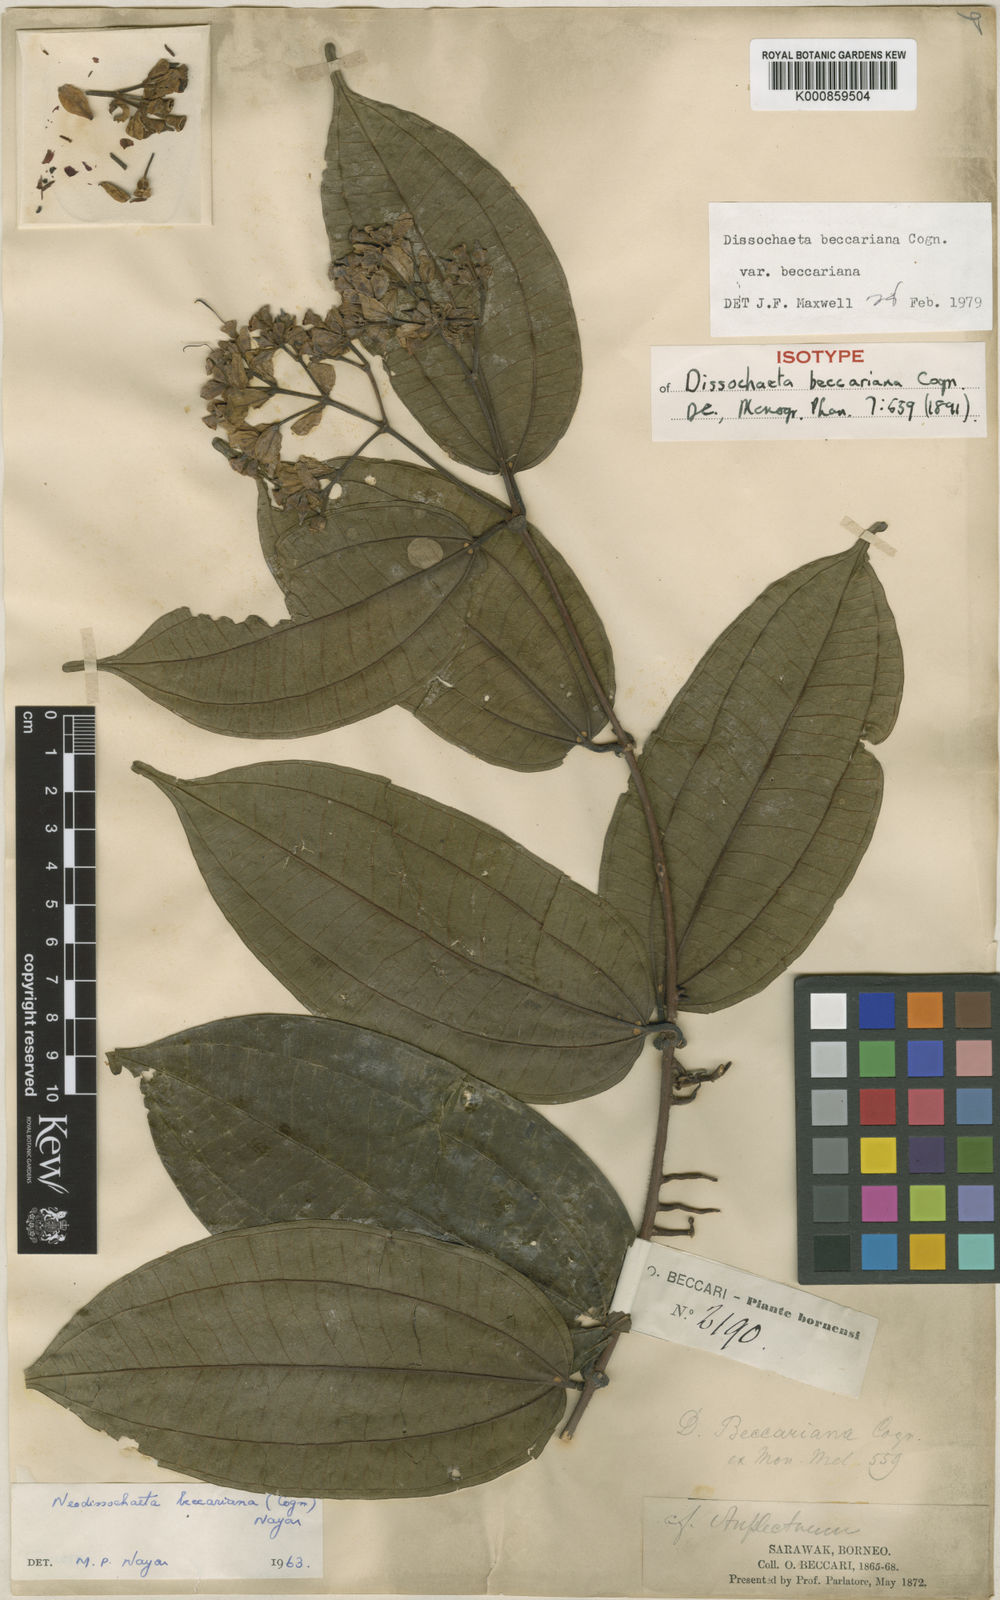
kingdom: Plantae
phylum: Tracheophyta
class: Magnoliopsida
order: Myrtales
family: Melastomataceae
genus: Dalenia
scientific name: Dalenia magnibracteata
